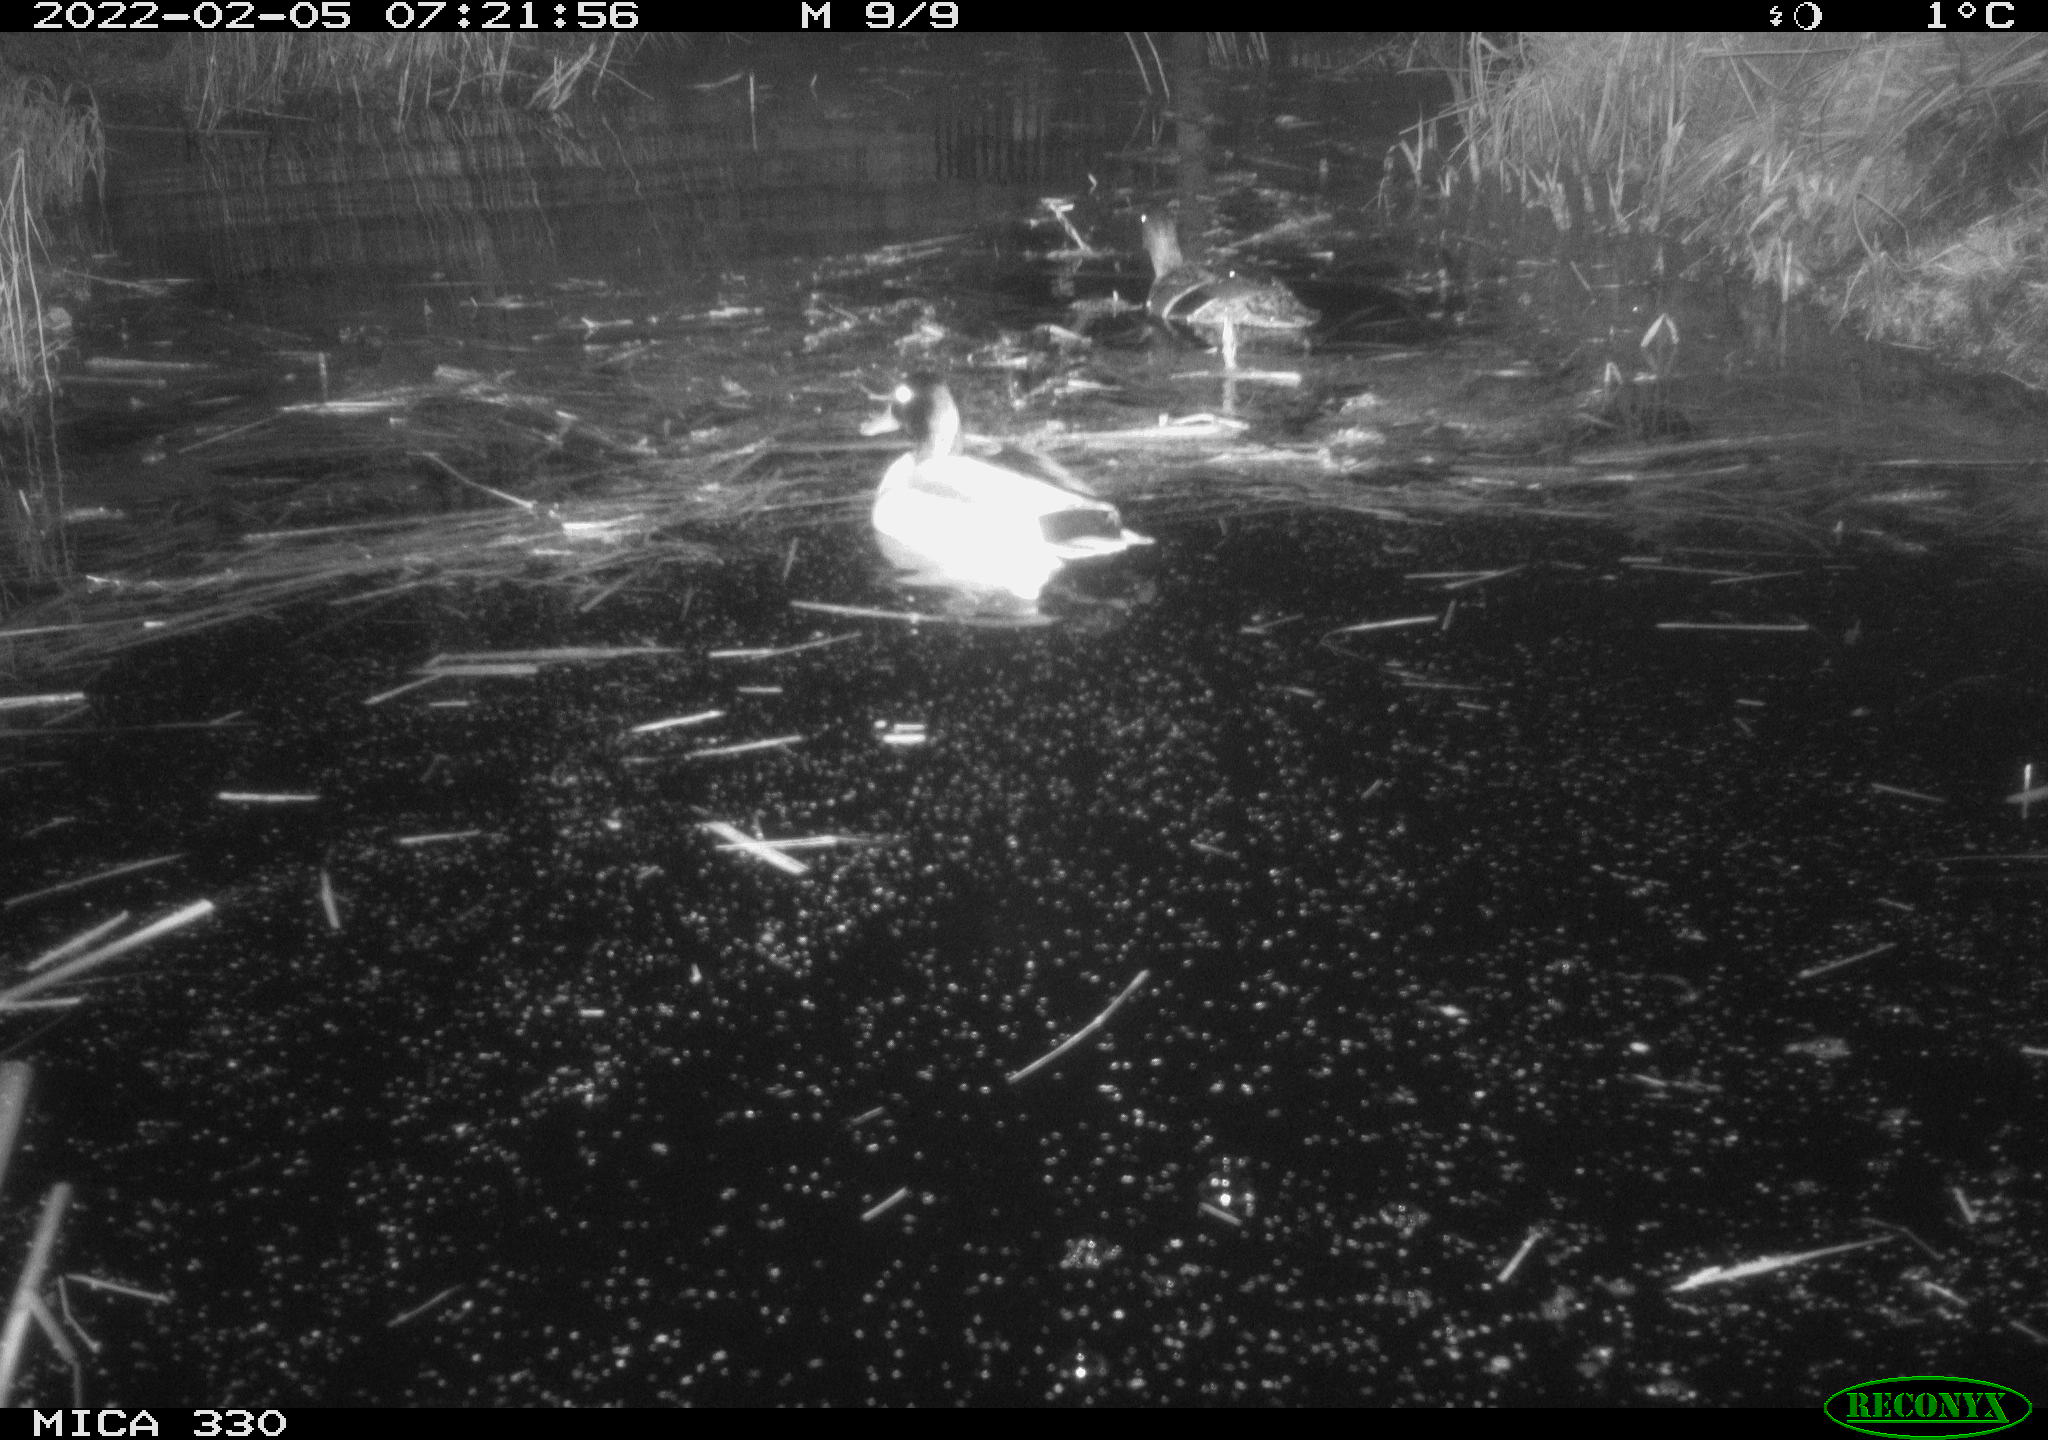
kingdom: Animalia
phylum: Chordata
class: Aves
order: Anseriformes
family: Anatidae
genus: Anas
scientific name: Anas platyrhynchos
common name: Mallard
